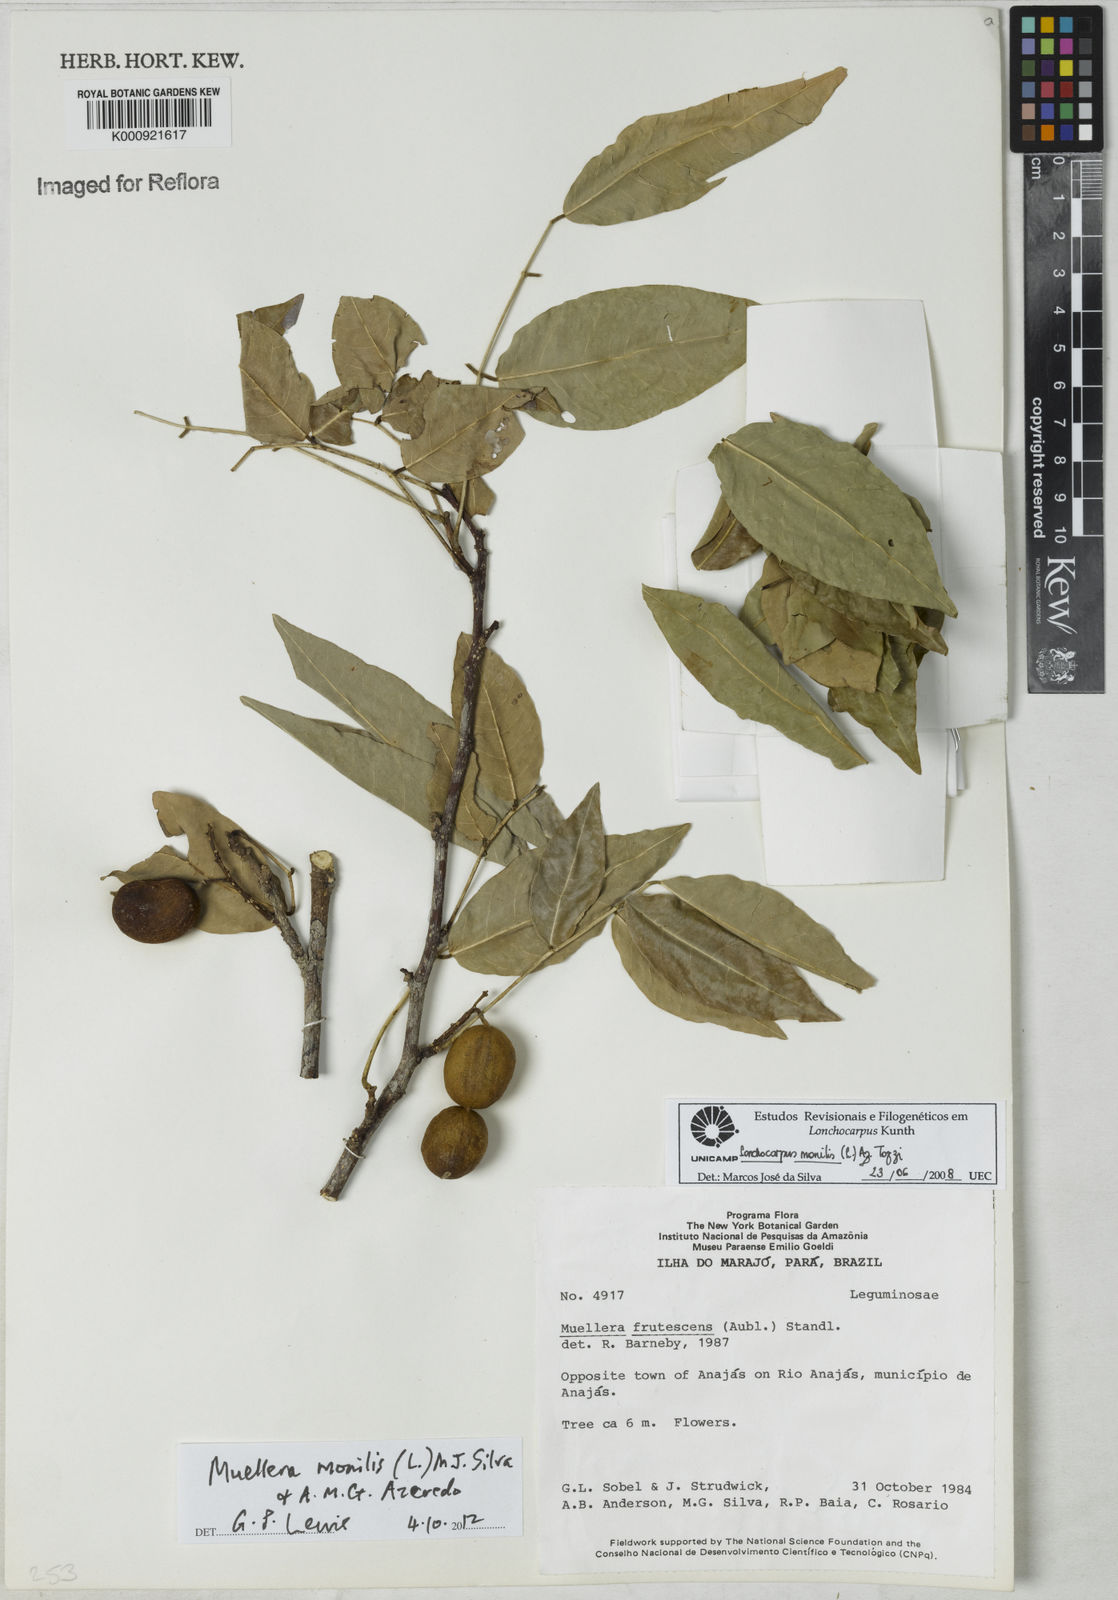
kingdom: Plantae
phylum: Tracheophyta
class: Magnoliopsida
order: Fabales
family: Fabaceae
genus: Muellera
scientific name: Muellera monilis
